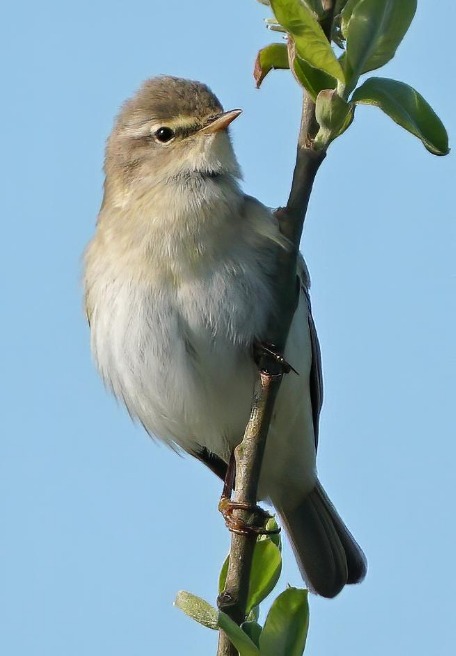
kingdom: Animalia
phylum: Chordata
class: Aves
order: Passeriformes
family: Phylloscopidae
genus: Phylloscopus
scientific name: Phylloscopus trochilus
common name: Løvsanger
